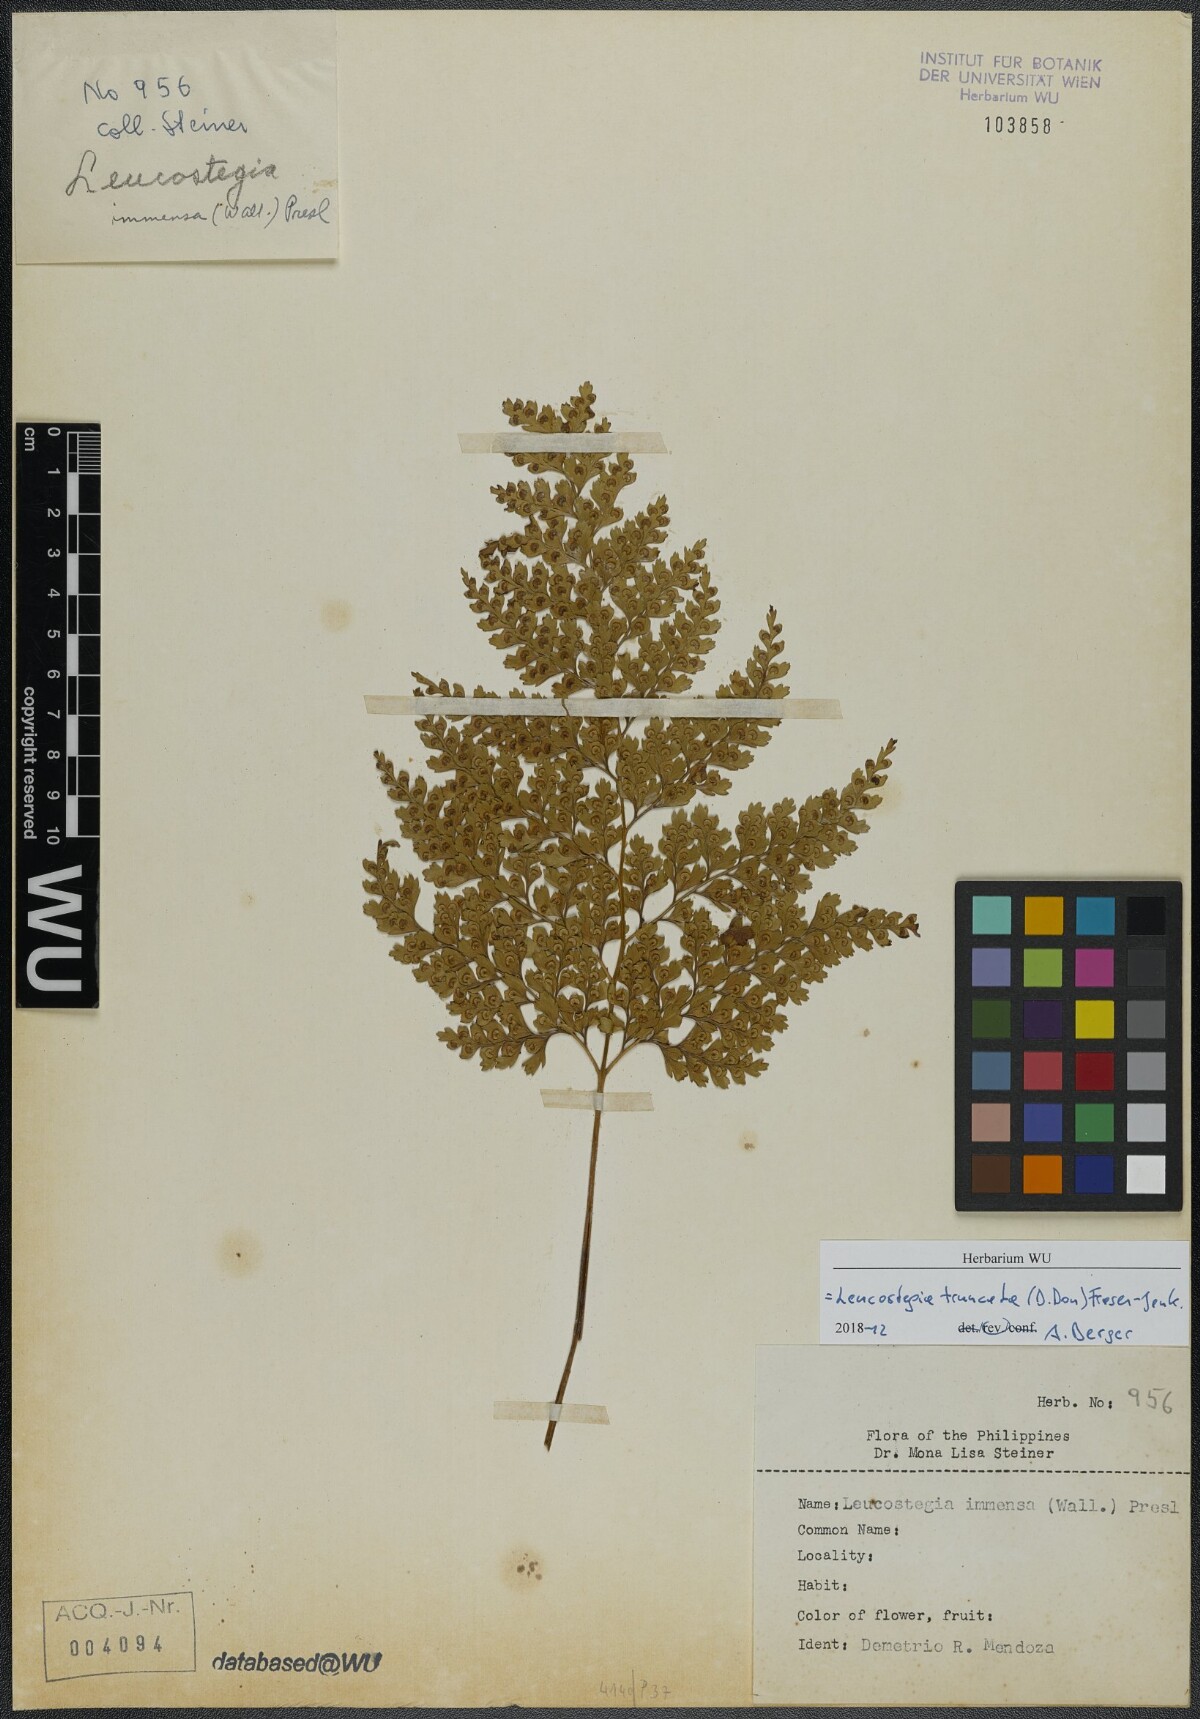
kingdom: Plantae
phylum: Tracheophyta
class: Polypodiopsida
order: Polypodiales
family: Hypodematiaceae
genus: Leucostegia
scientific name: Leucostegia immersa
